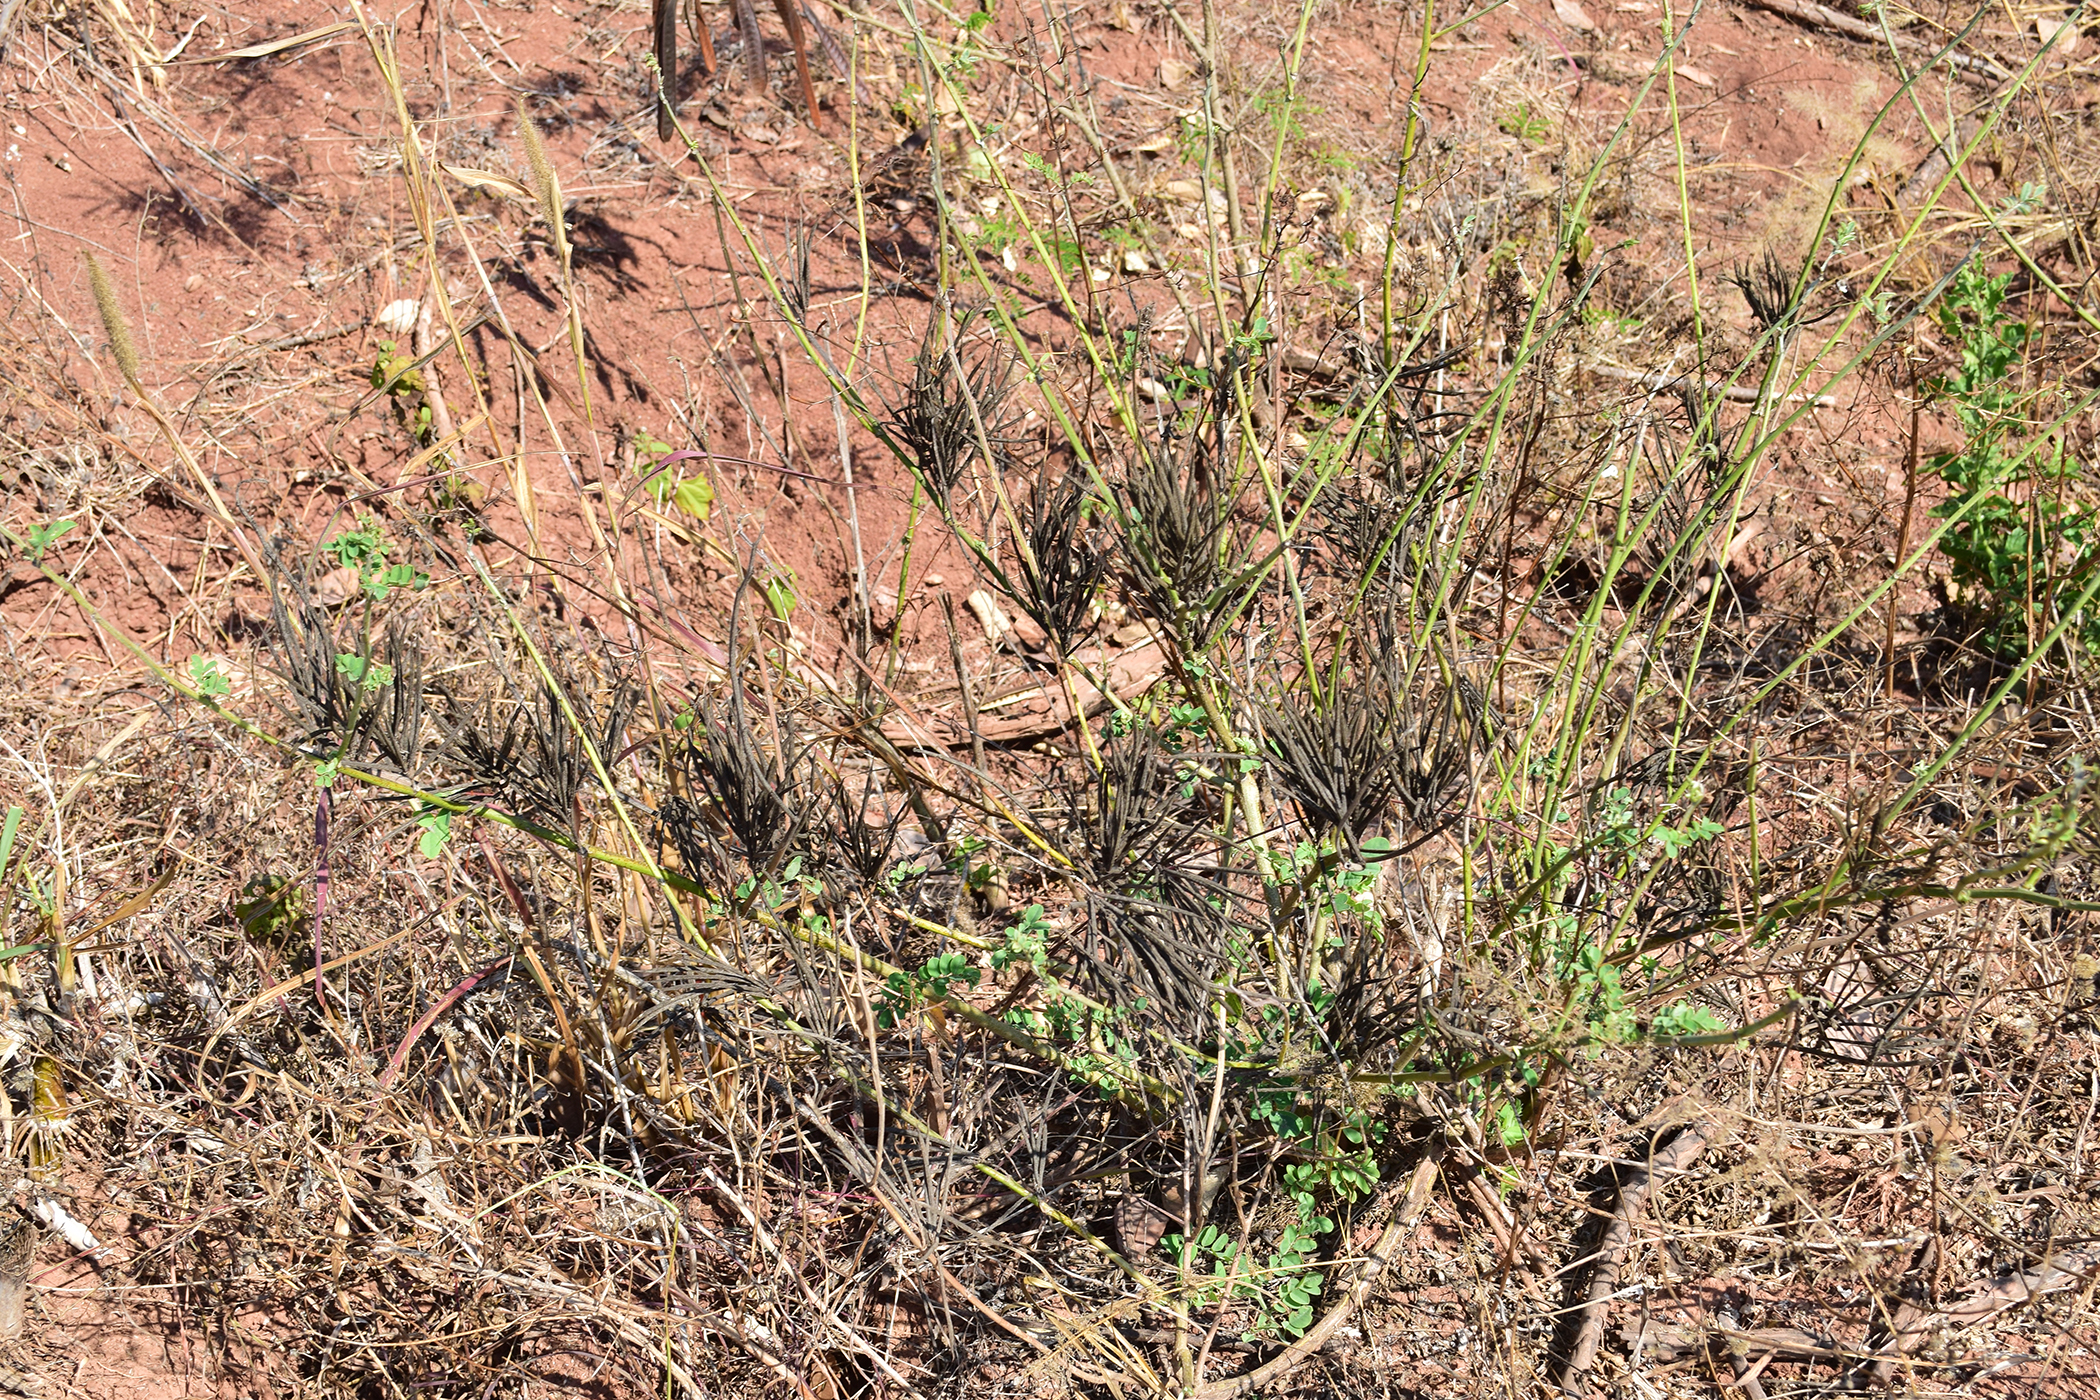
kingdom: Plantae
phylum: Tracheophyta
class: Magnoliopsida
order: Fabales
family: Fabaceae
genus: Indigofera
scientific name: Indigofera galegoides
